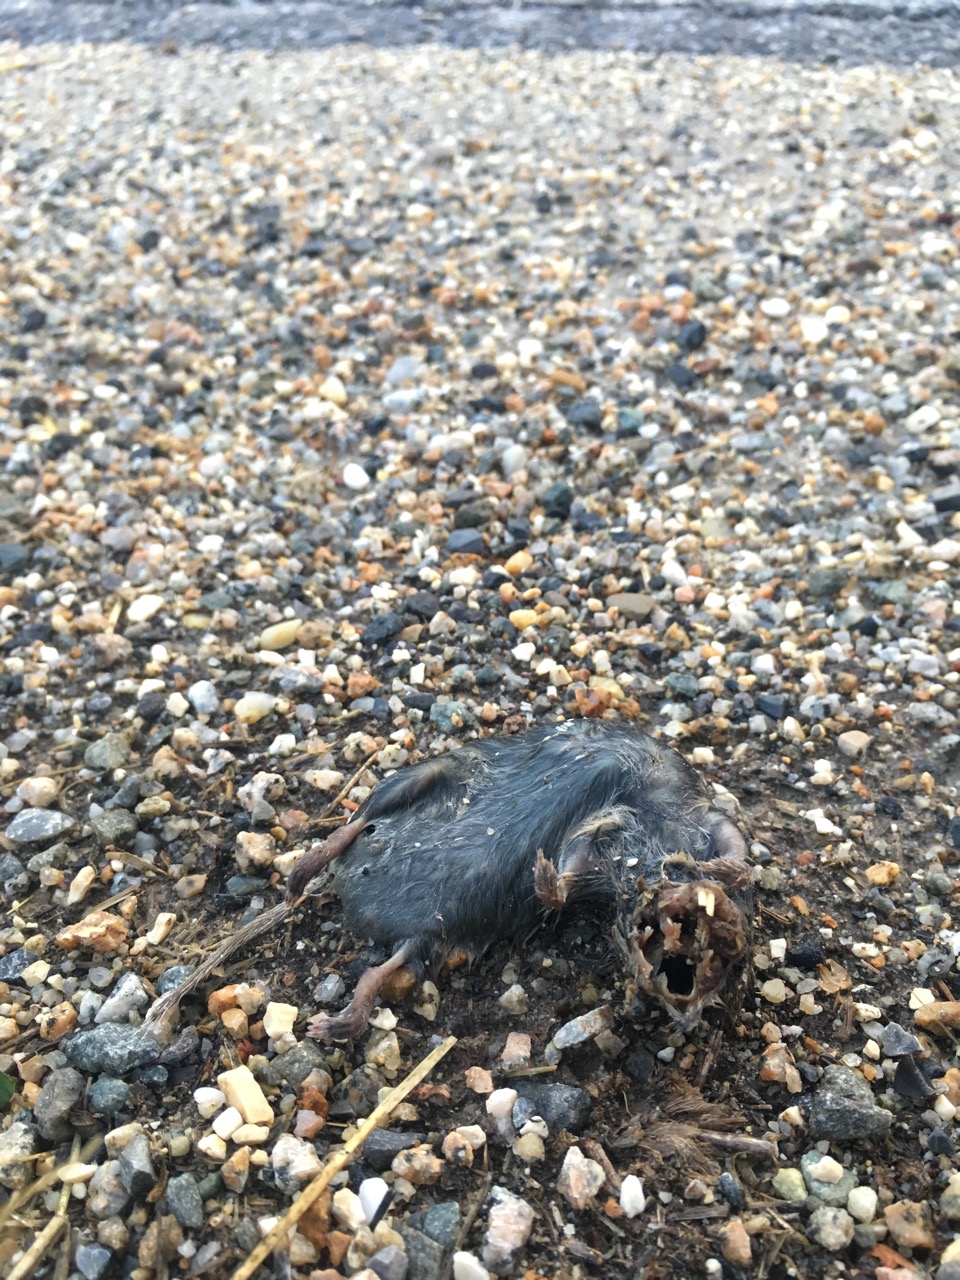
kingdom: Animalia
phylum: Chordata
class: Mammalia
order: Rodentia
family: Cricetidae
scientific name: Cricetidae
